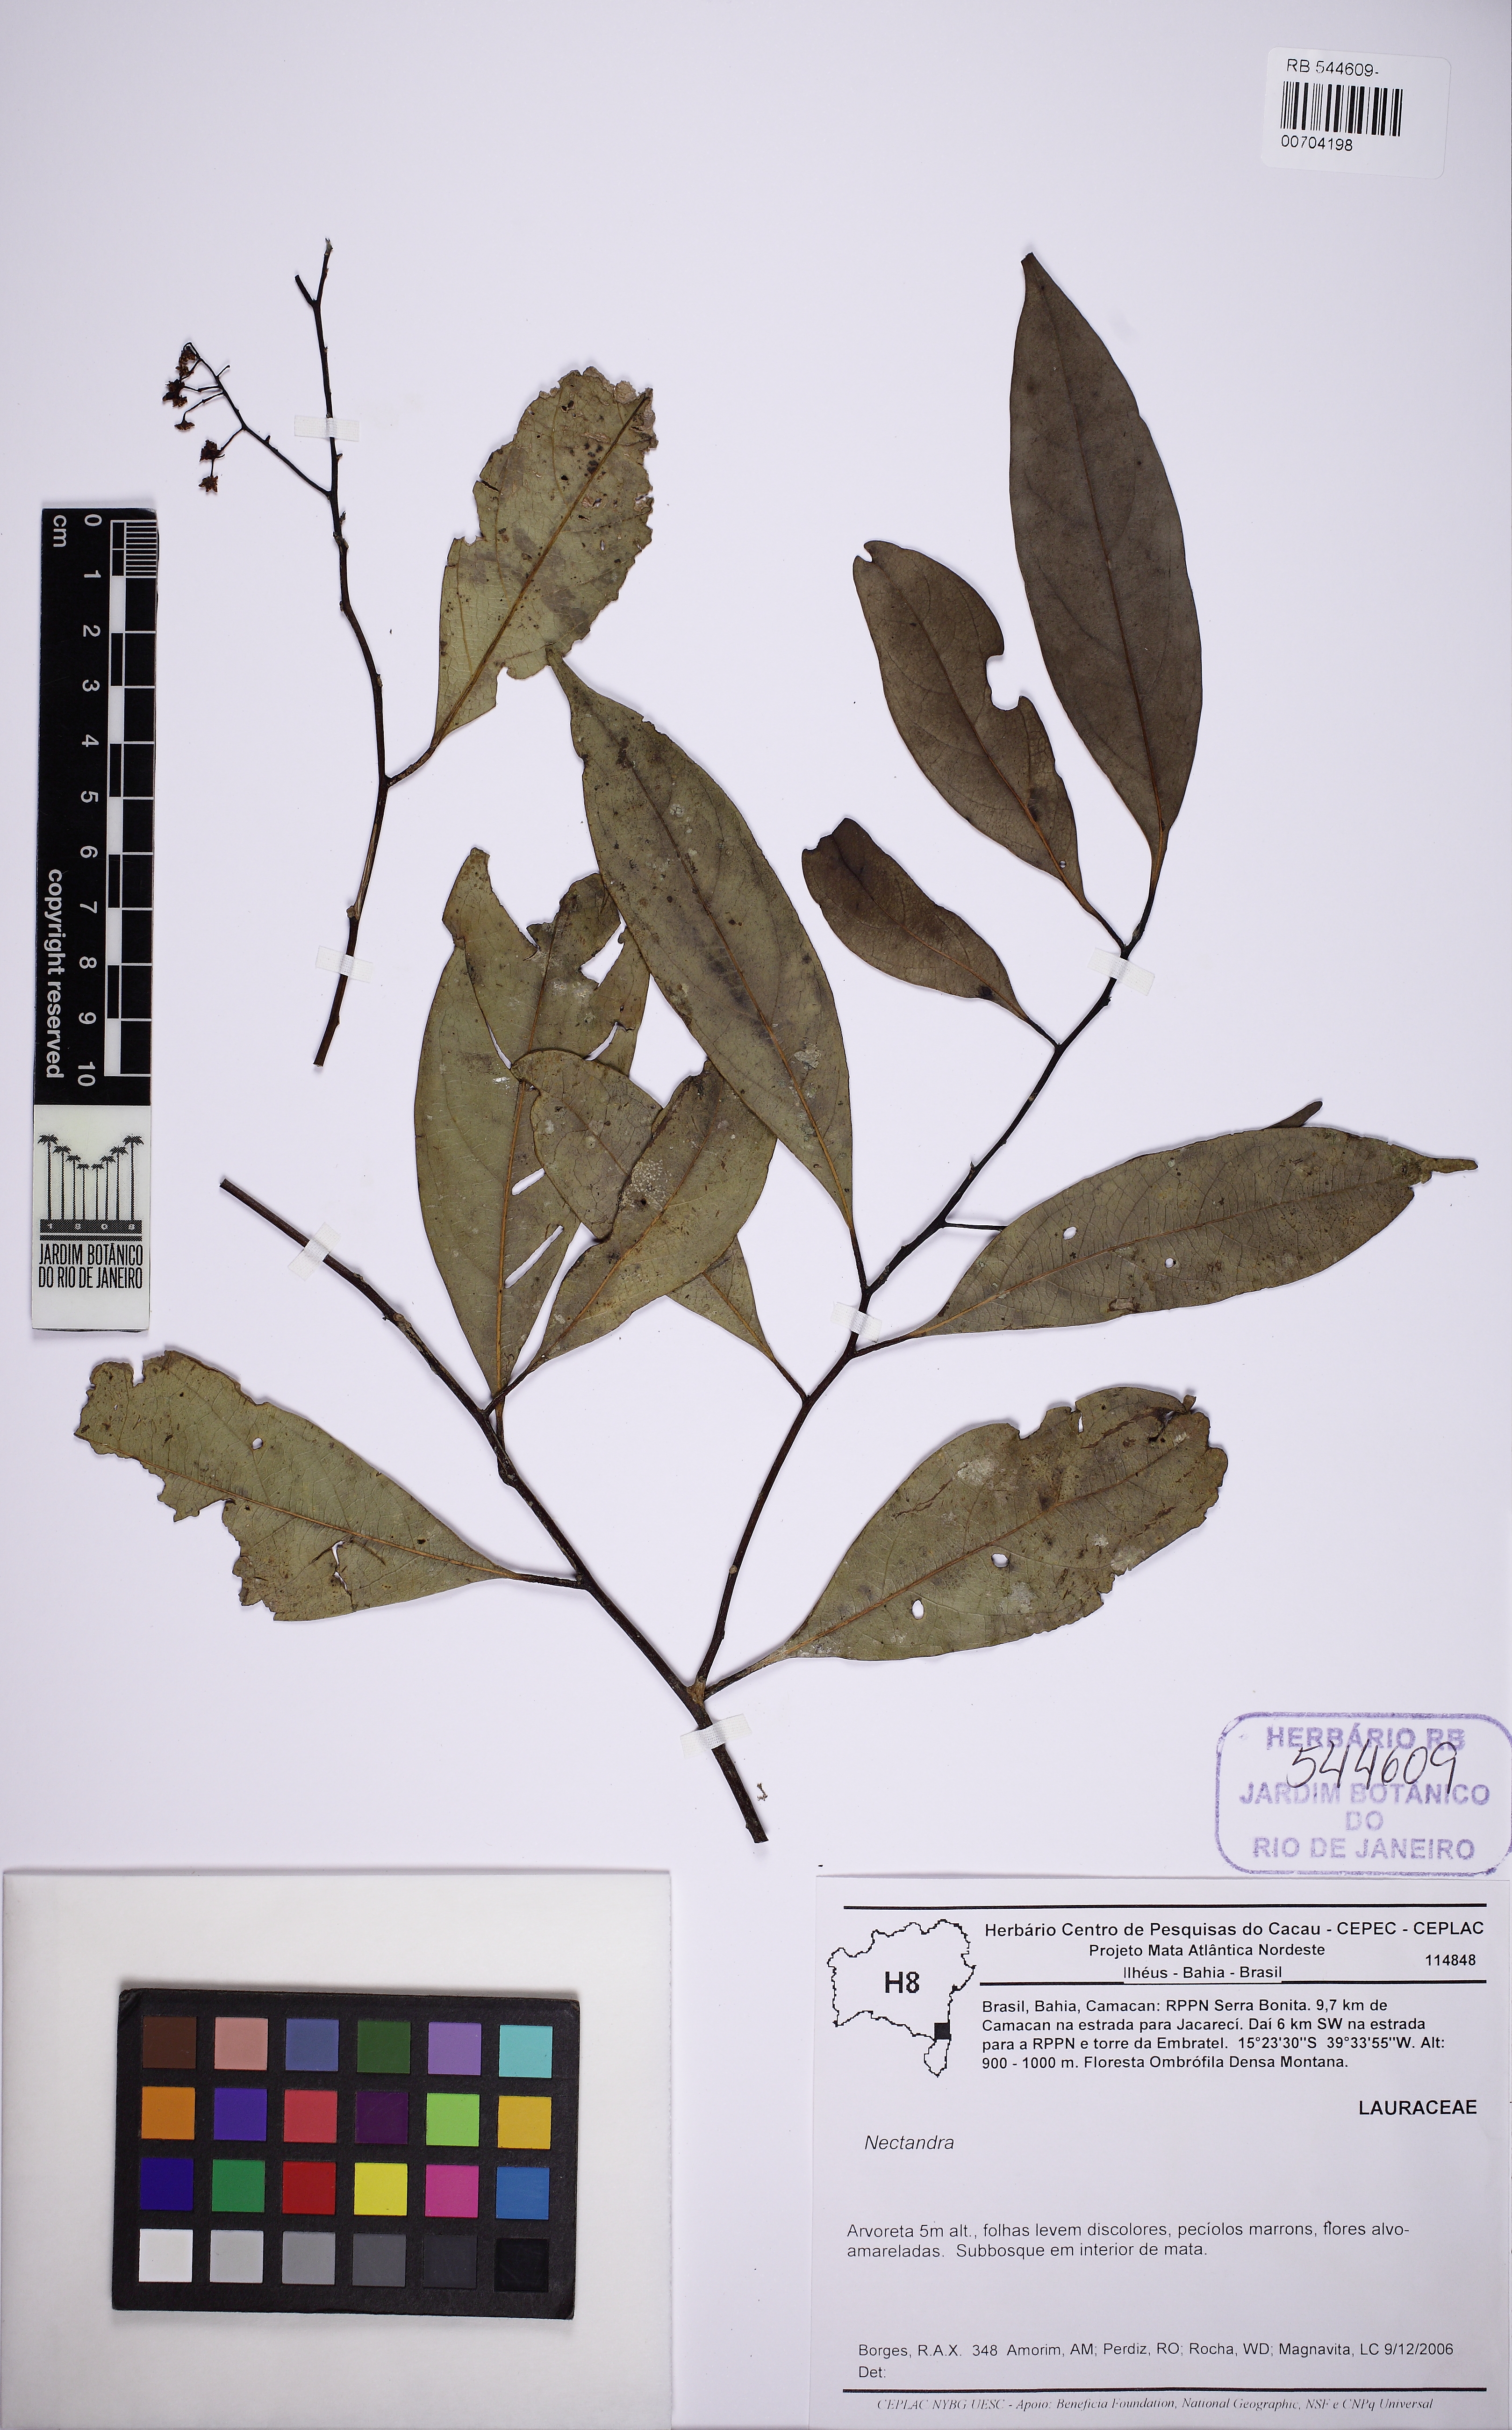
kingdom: Plantae
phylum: Tracheophyta
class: Magnoliopsida
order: Laurales
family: Lauraceae
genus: Ocotea
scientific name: Ocotea leptobotra
